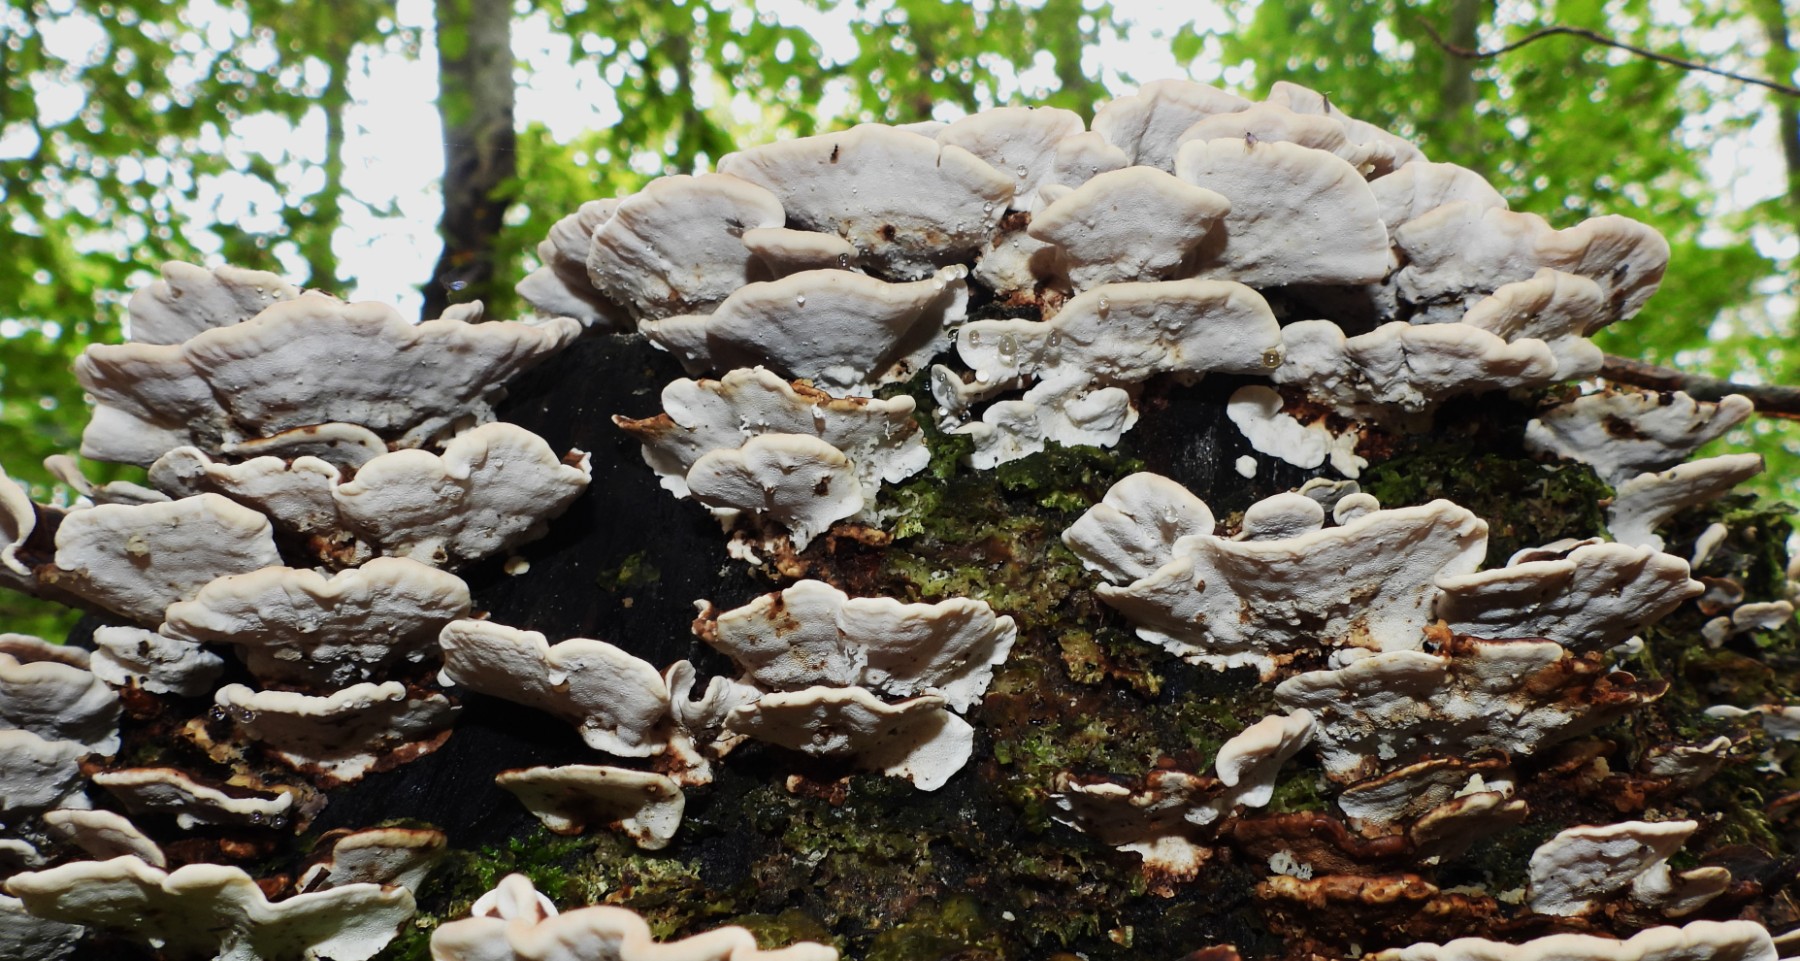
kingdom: Fungi
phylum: Basidiomycota
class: Agaricomycetes
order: Polyporales
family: Polyporaceae
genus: Trametes
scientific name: Trametes versicolor
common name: broget læderporesvamp
